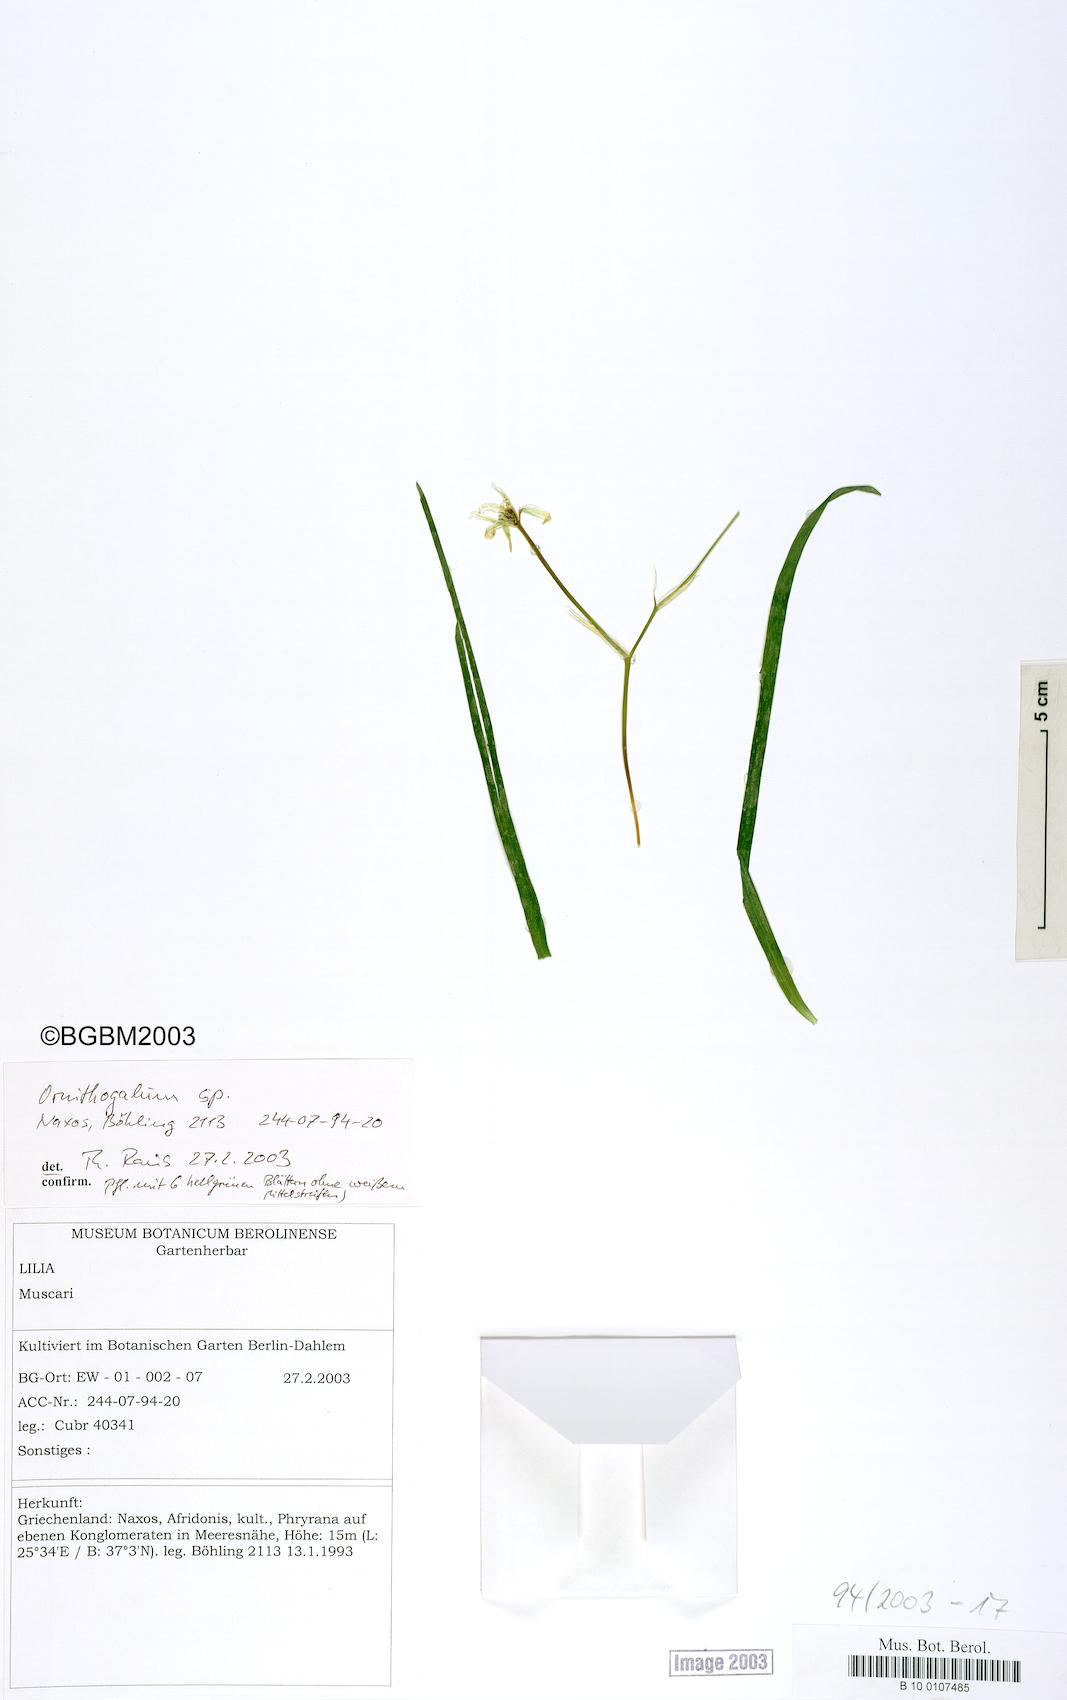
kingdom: Plantae
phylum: Tracheophyta
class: Liliopsida
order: Asparagales
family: Asparagaceae
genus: Ornithogalum
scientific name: Ornithogalum montanum
